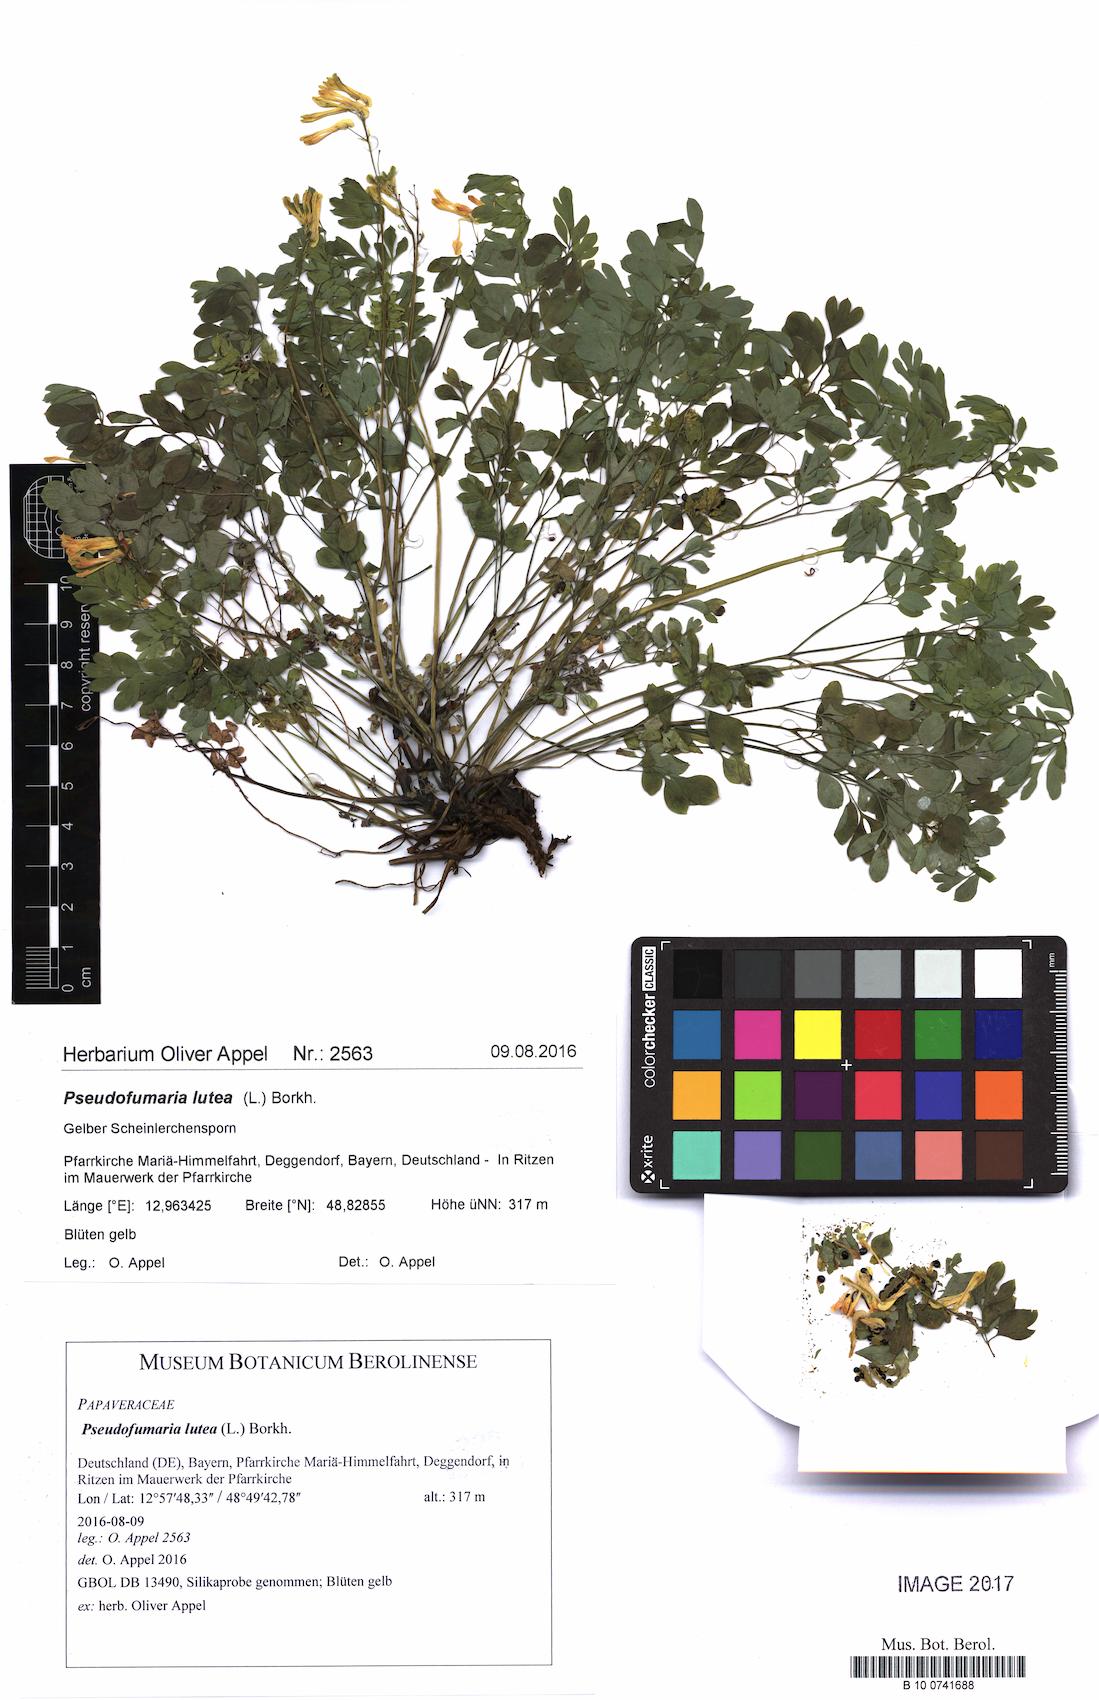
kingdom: Plantae
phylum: Tracheophyta
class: Magnoliopsida
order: Ranunculales
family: Papaveraceae
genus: Pseudofumaria
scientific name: Pseudofumaria lutea
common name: Yellow corydalis
